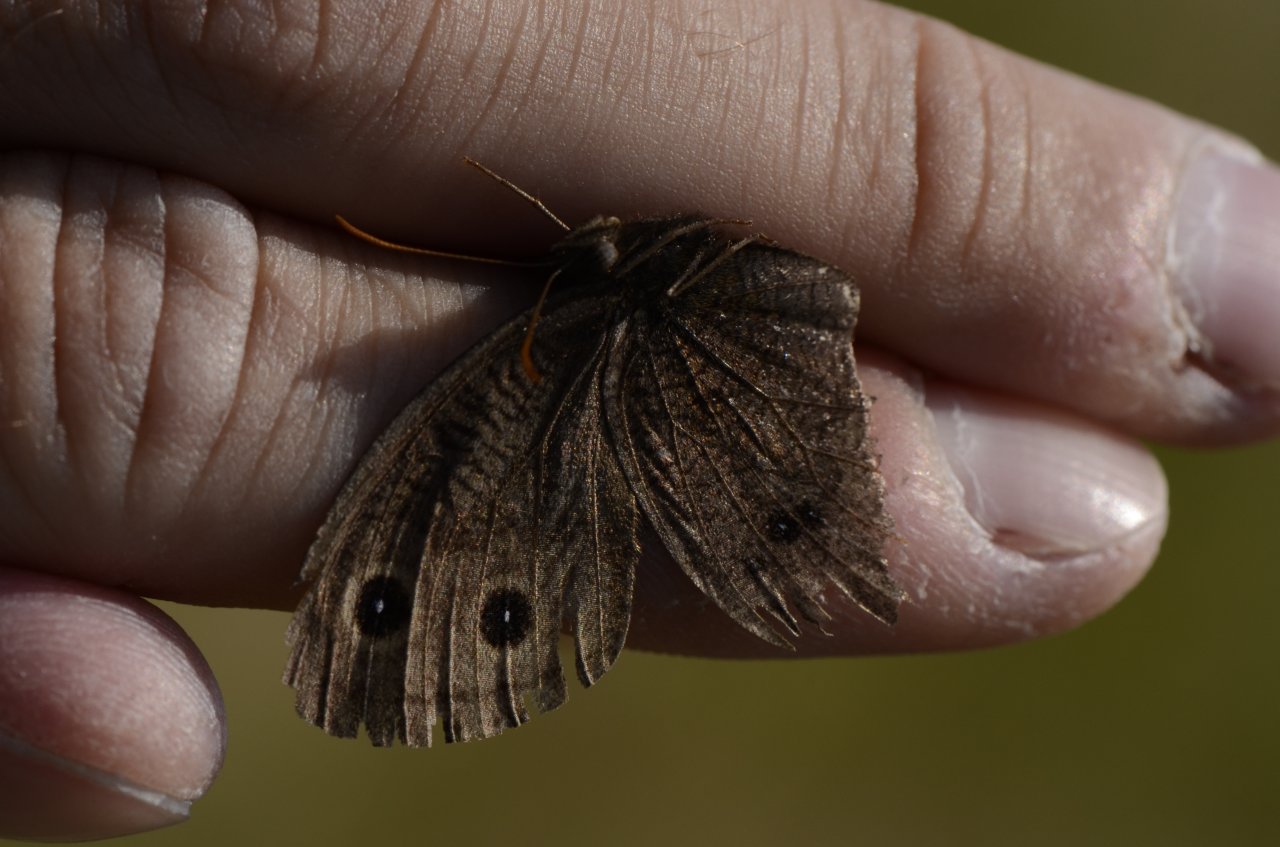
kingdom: Animalia
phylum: Arthropoda
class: Insecta
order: Lepidoptera
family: Nymphalidae
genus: Cercyonis
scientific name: Cercyonis pegala
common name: Common Wood-Nymph
